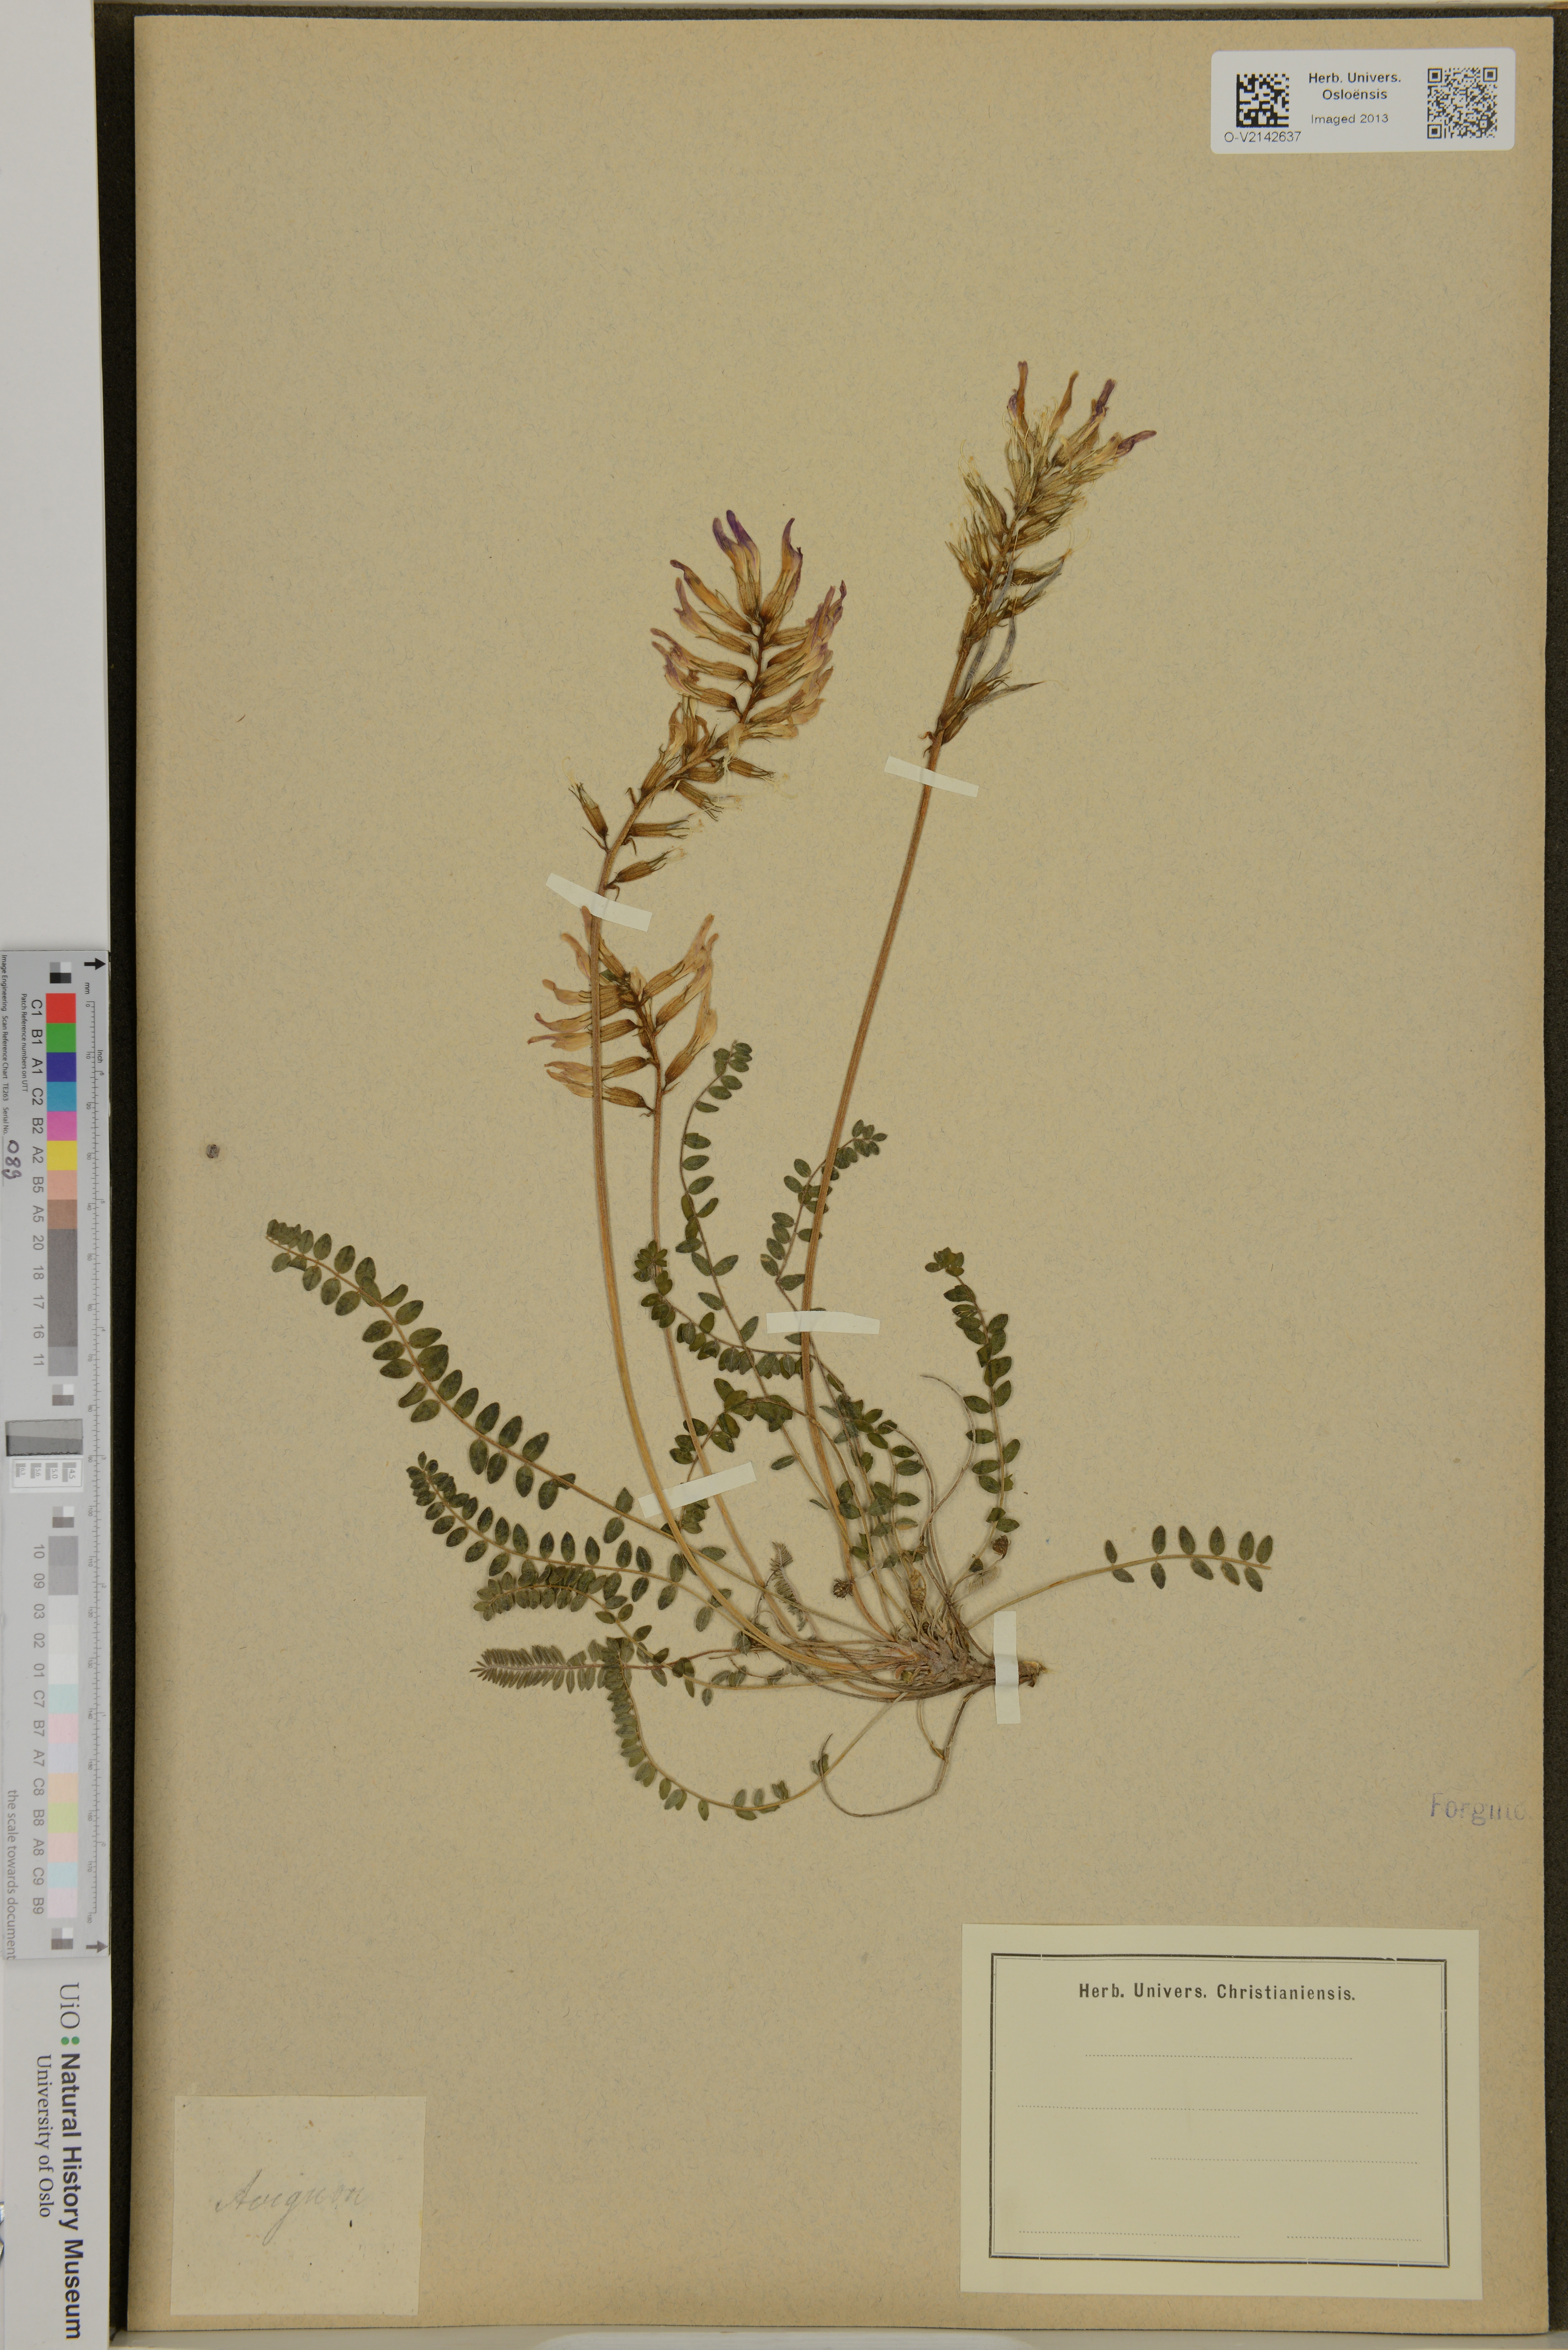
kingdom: Plantae
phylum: Tracheophyta
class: Magnoliopsida
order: Fabales
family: Fabaceae
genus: Astragalus
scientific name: Astragalus
